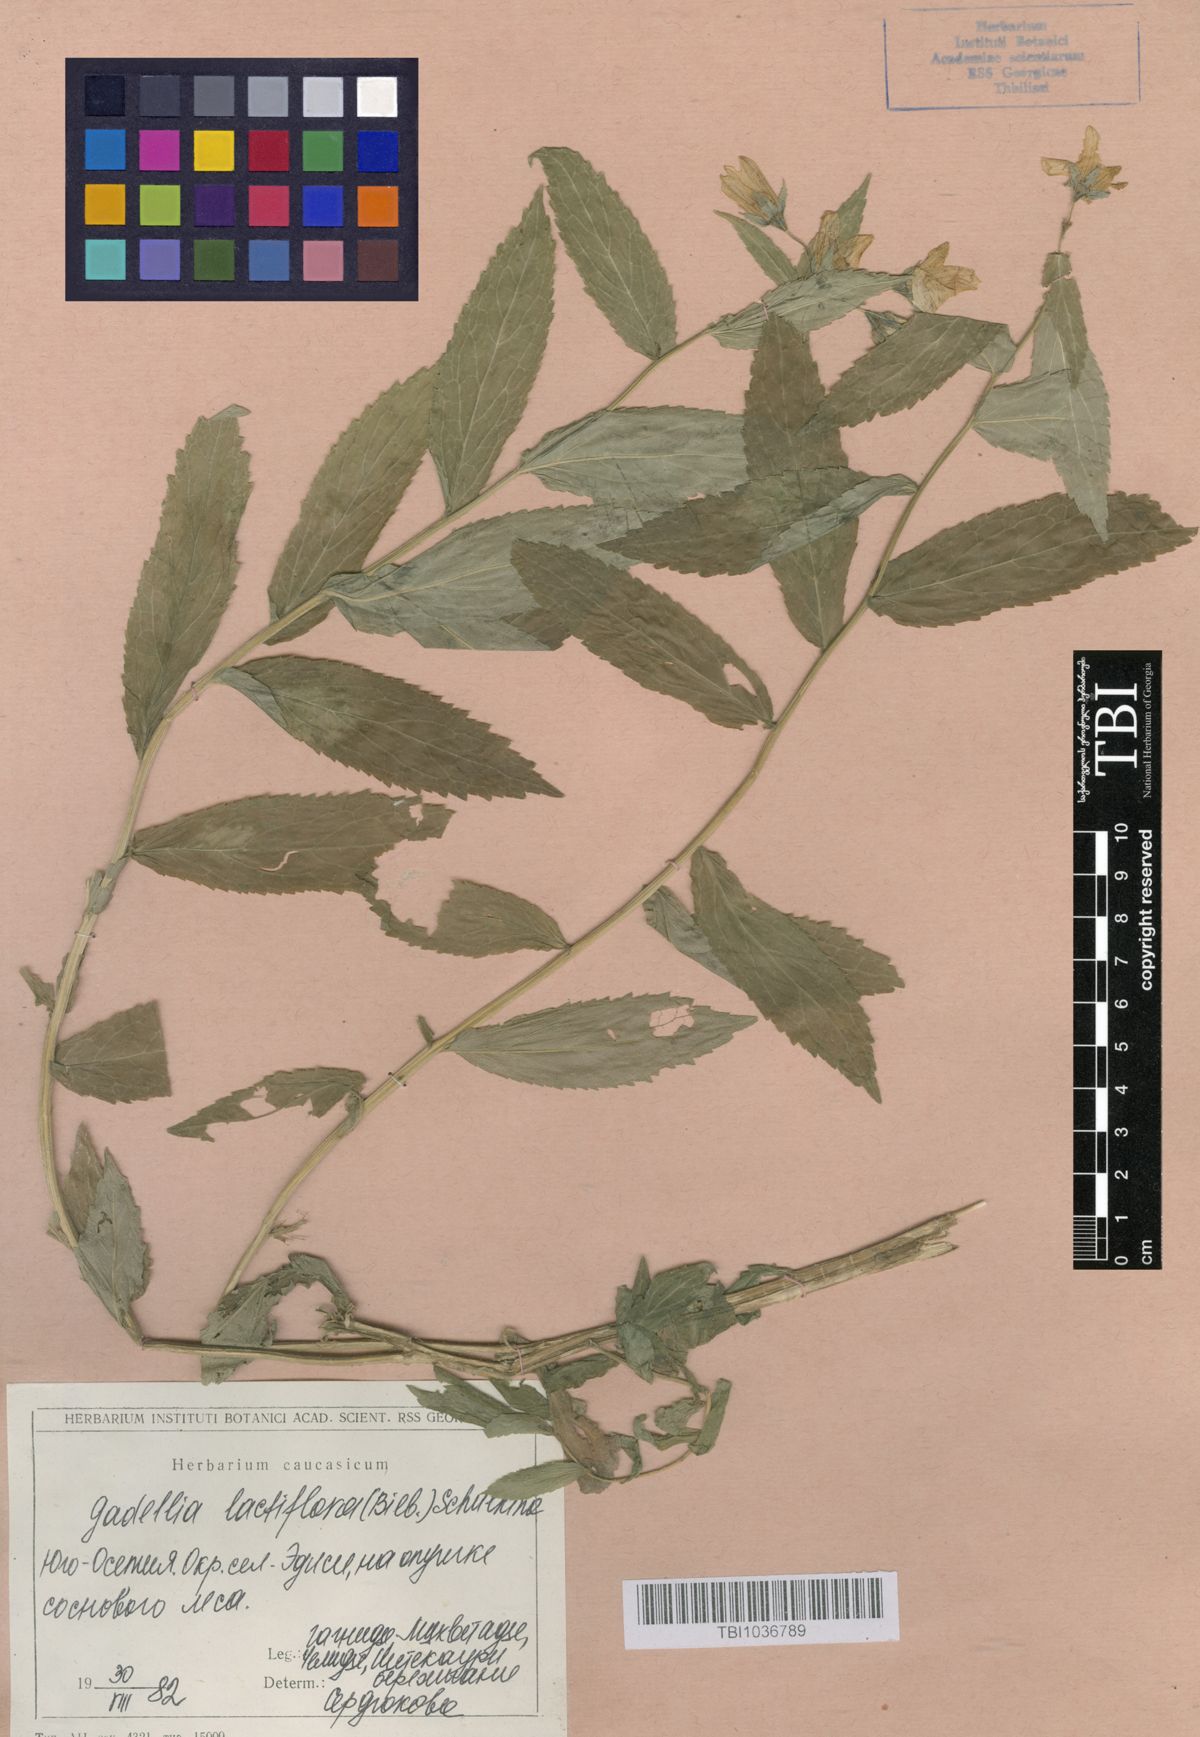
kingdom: Plantae
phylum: Tracheophyta
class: Magnoliopsida
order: Asterales
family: Campanulaceae
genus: Campanula
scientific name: Campanula lactiflora
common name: Milky bellflower
